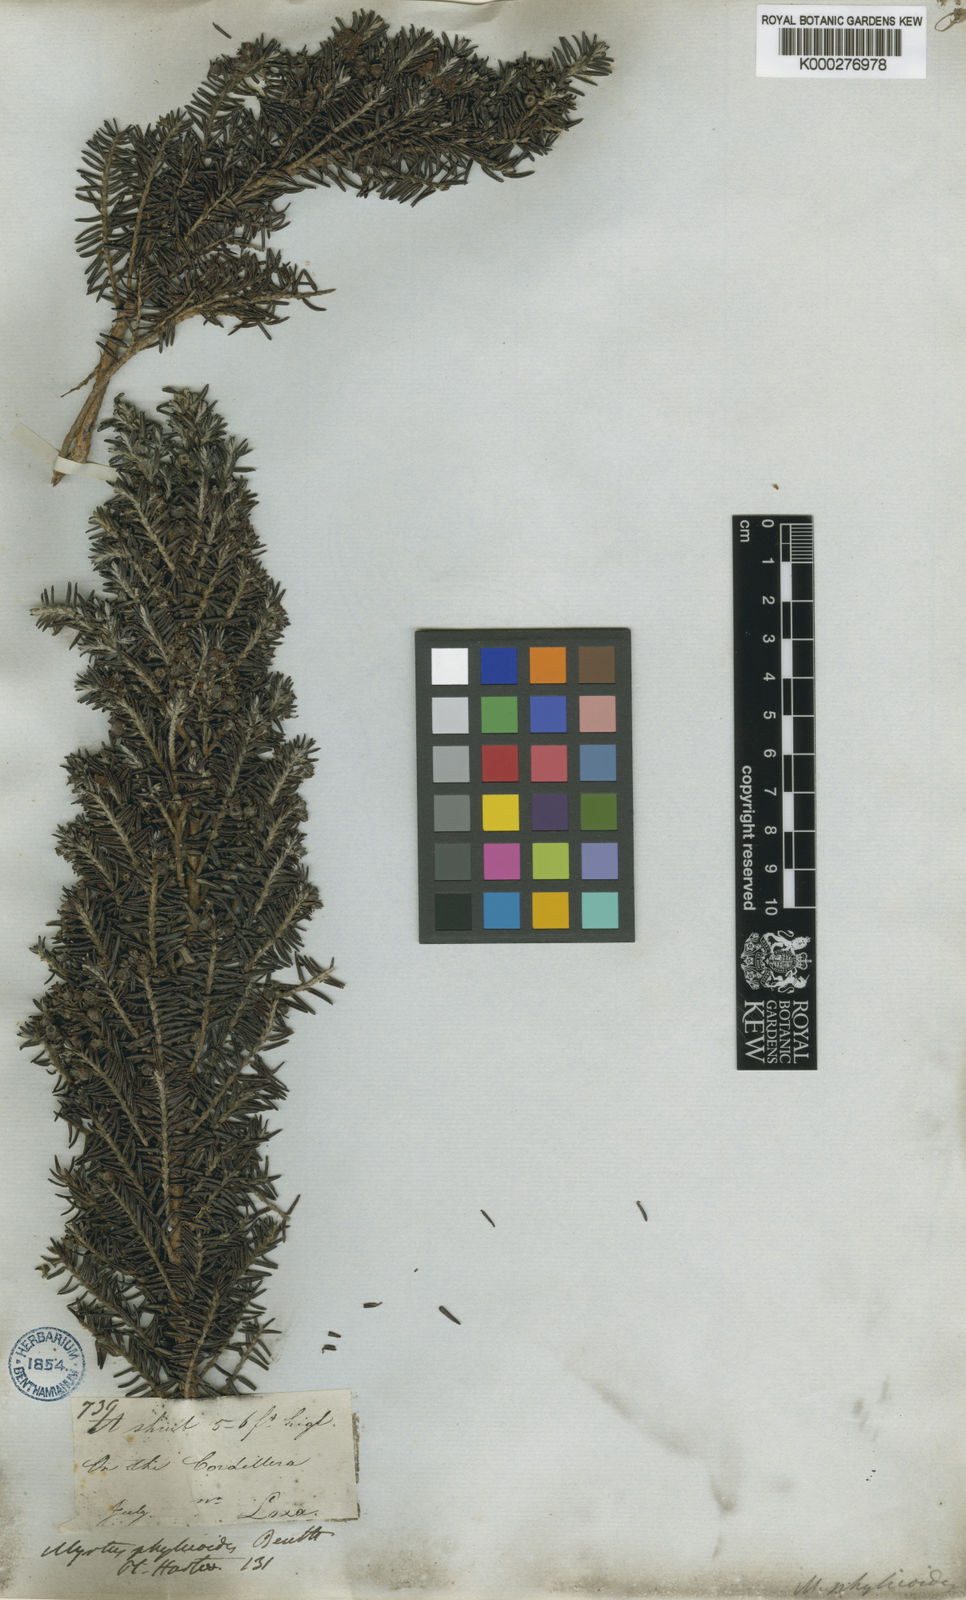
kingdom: Plantae
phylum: Tracheophyta
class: Magnoliopsida
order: Myrtales
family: Myrtaceae
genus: Myrteola
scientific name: Myrteola phylicoides
